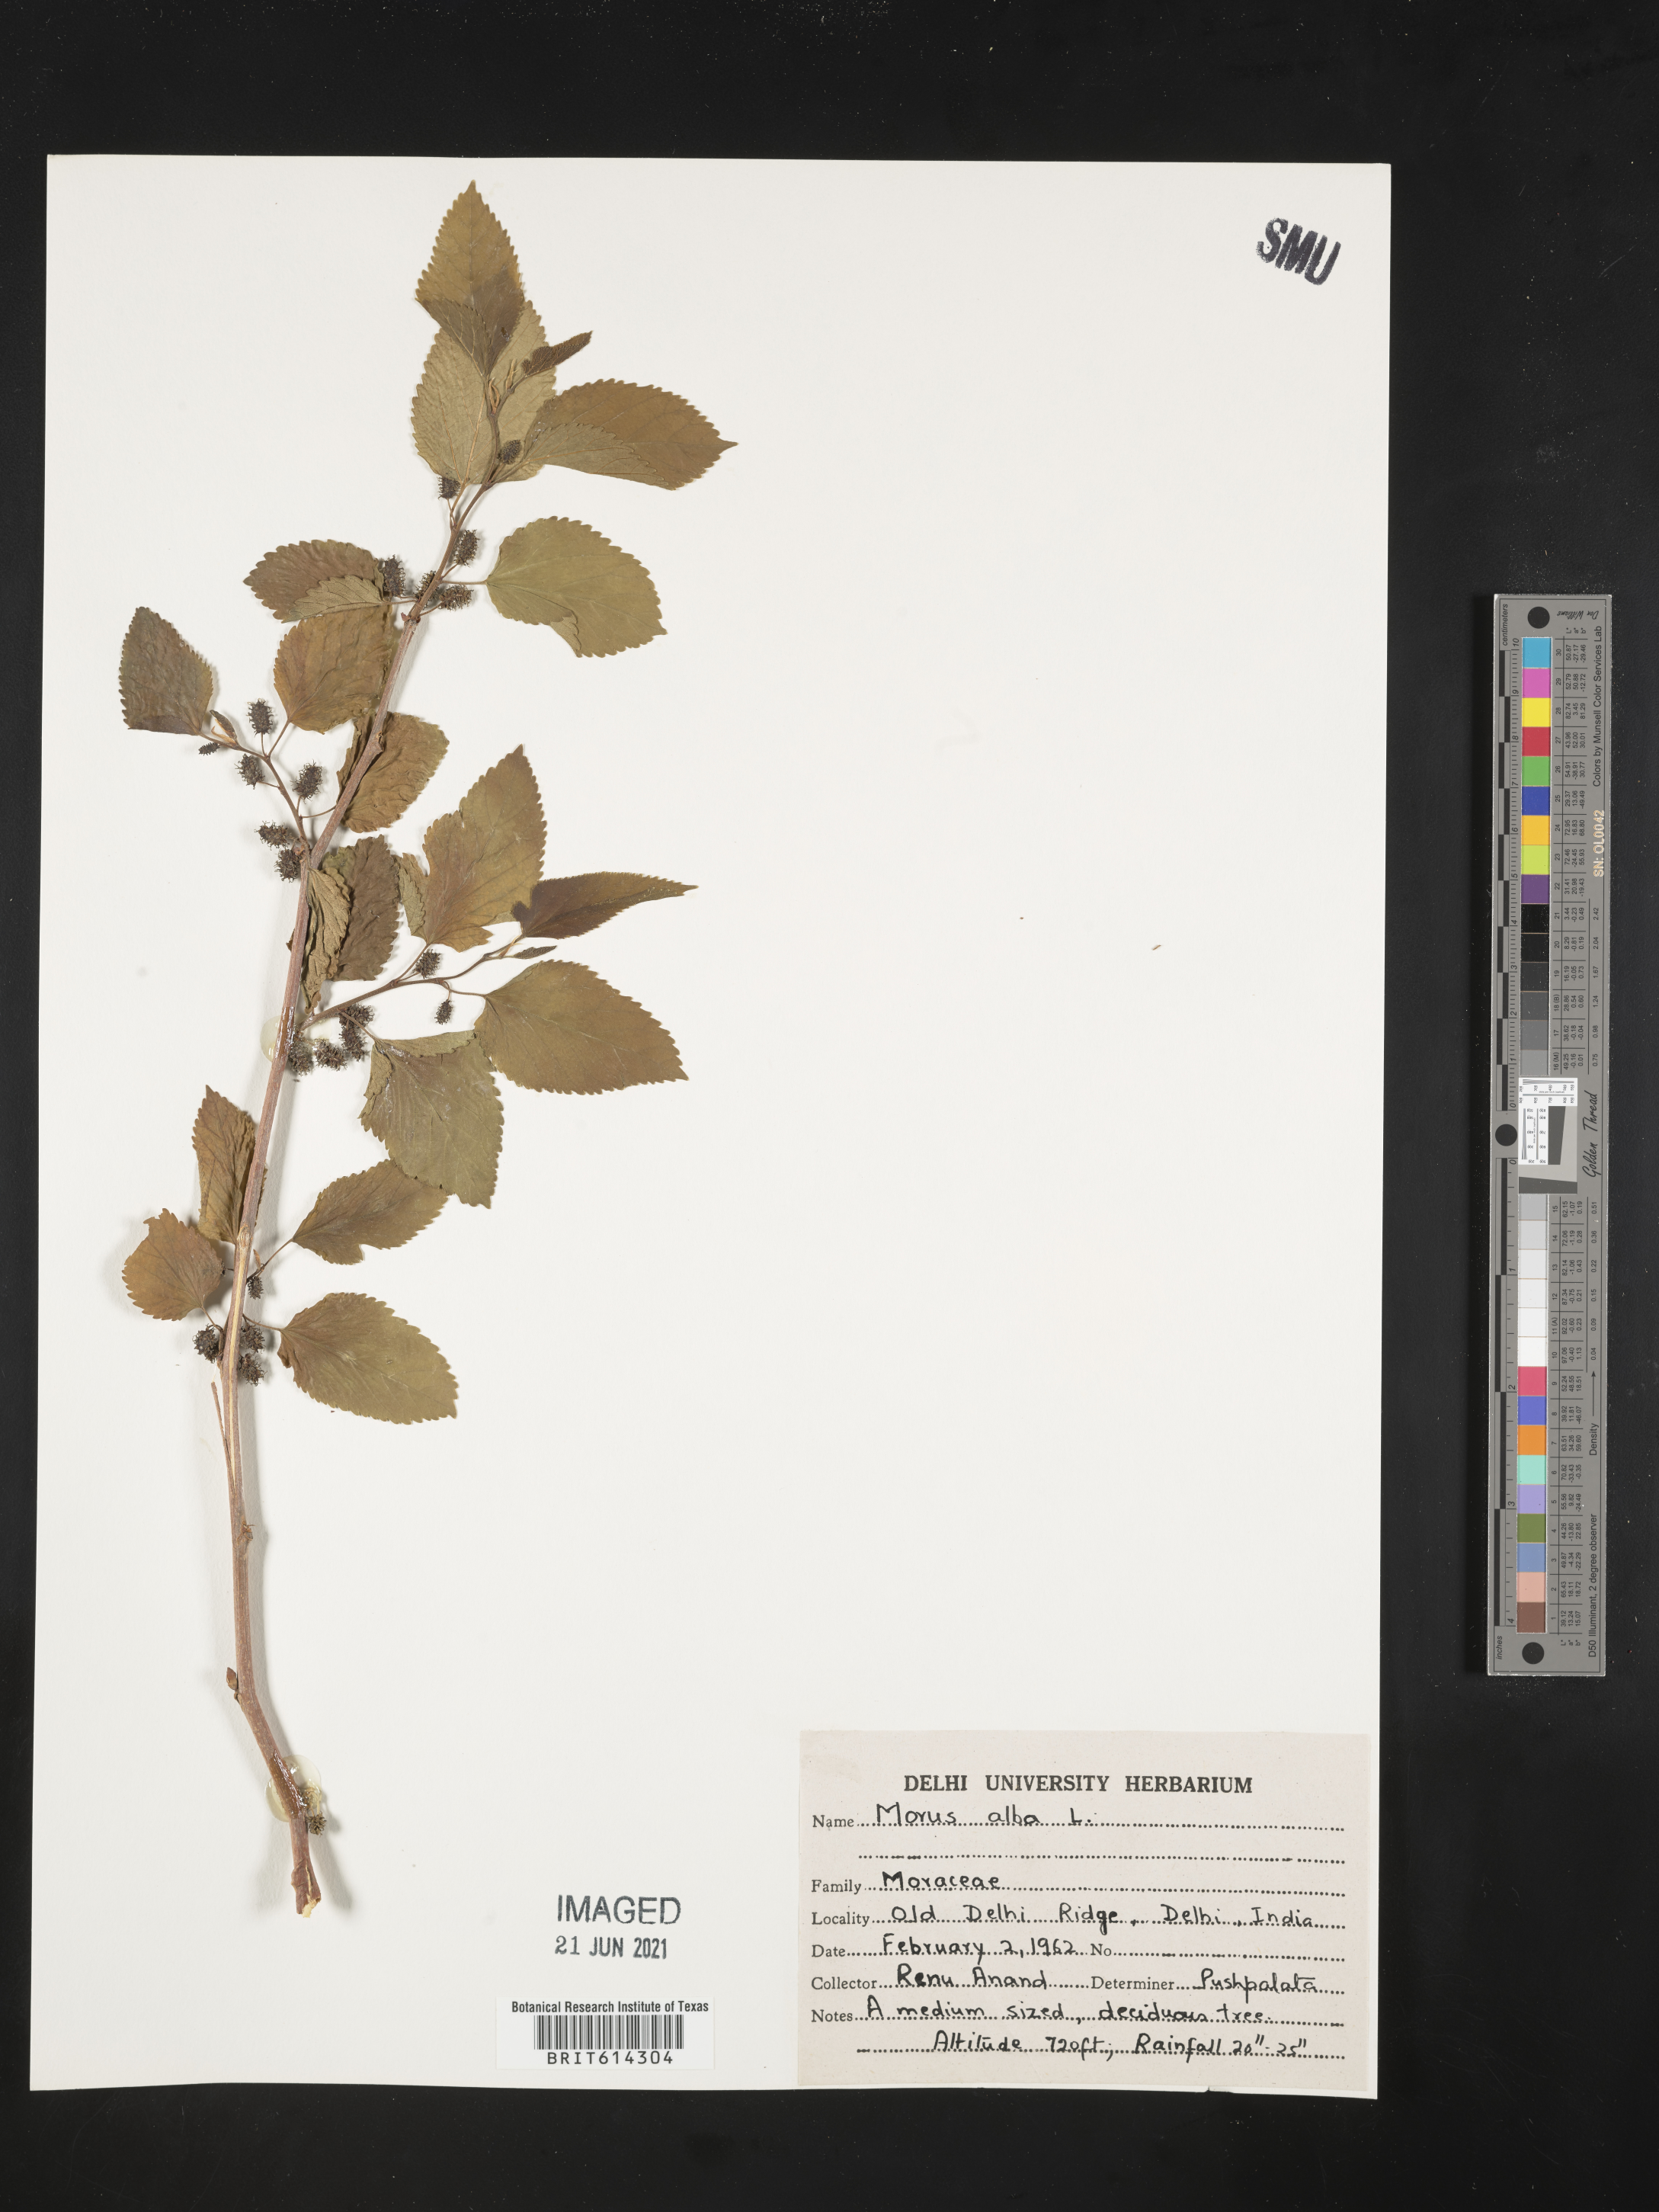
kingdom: Plantae
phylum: Tracheophyta
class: Magnoliopsida
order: Rosales
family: Moraceae
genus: Morus
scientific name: Morus alba
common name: White mulberry
